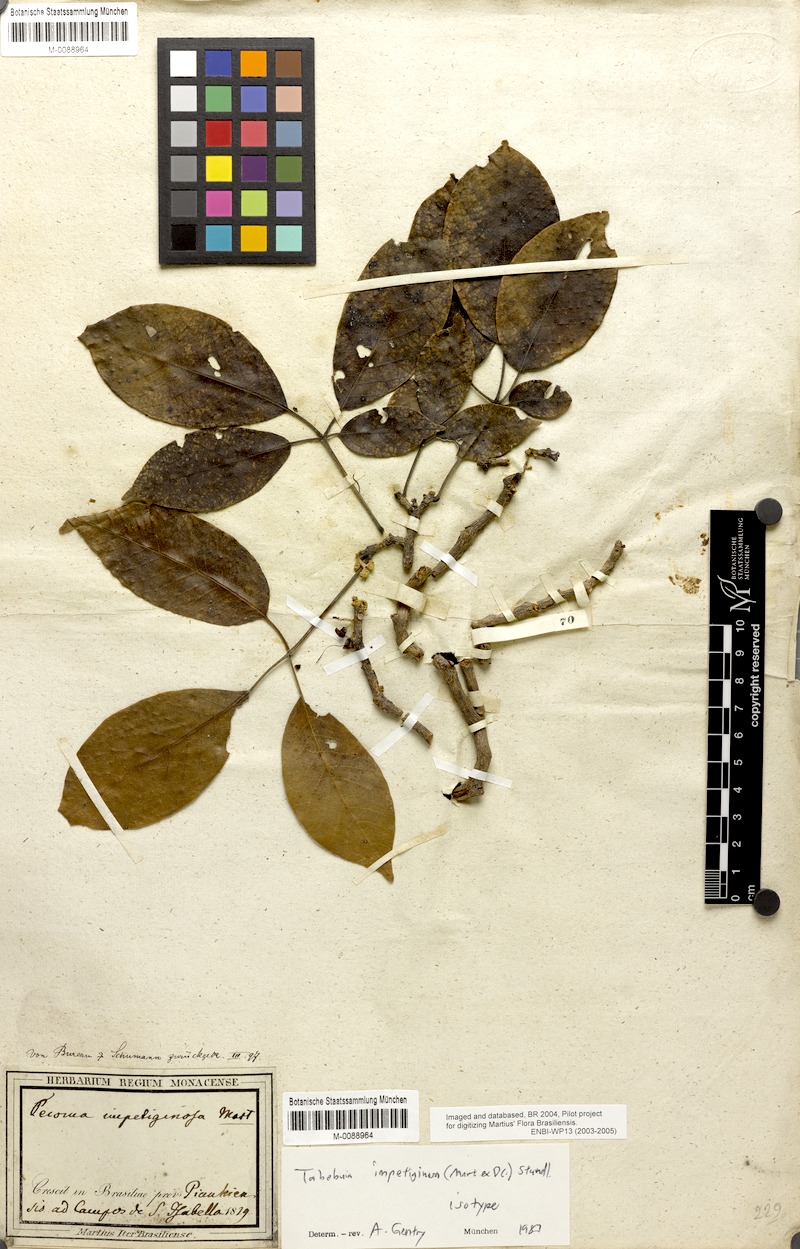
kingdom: Plantae
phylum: Tracheophyta
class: Magnoliopsida
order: Lamiales
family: Bignoniaceae
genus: Handroanthus
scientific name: Handroanthus impetiginosum
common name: Pink trumpet tree
